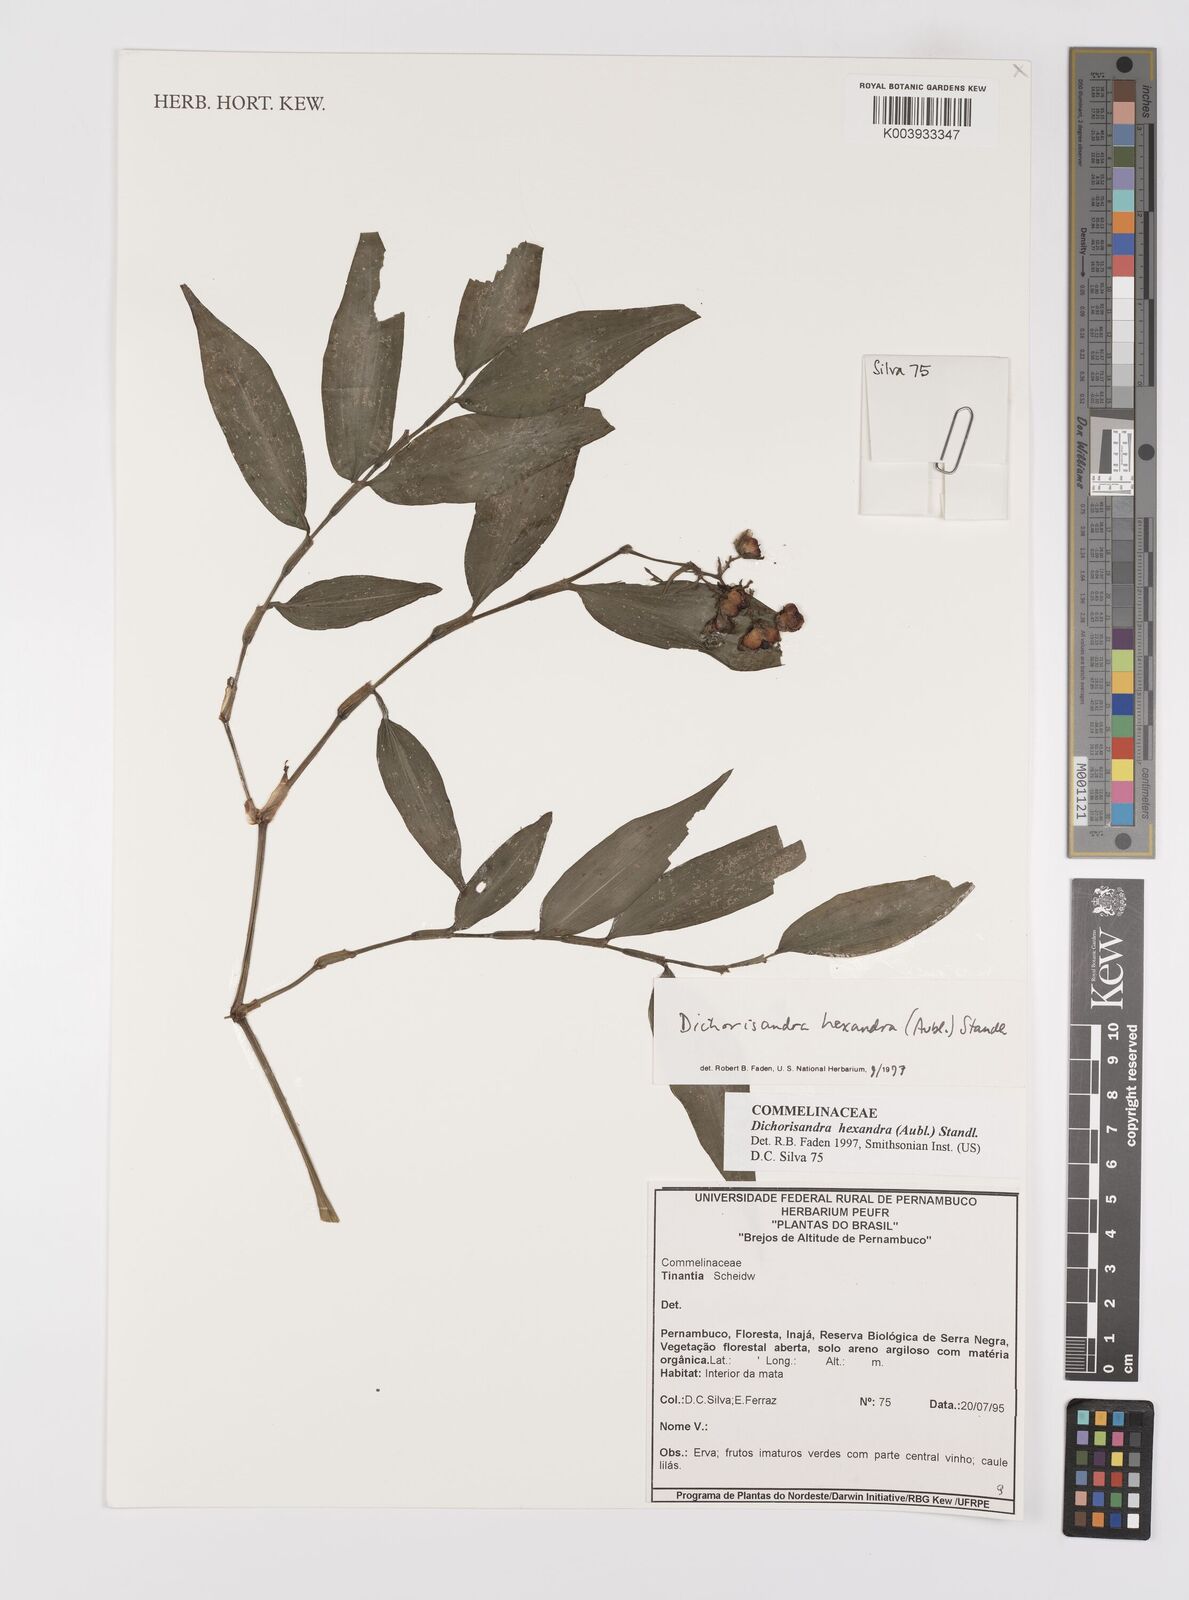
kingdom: Plantae
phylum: Tracheophyta
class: Liliopsida
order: Commelinales
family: Commelinaceae
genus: Dichorisandra
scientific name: Dichorisandra
